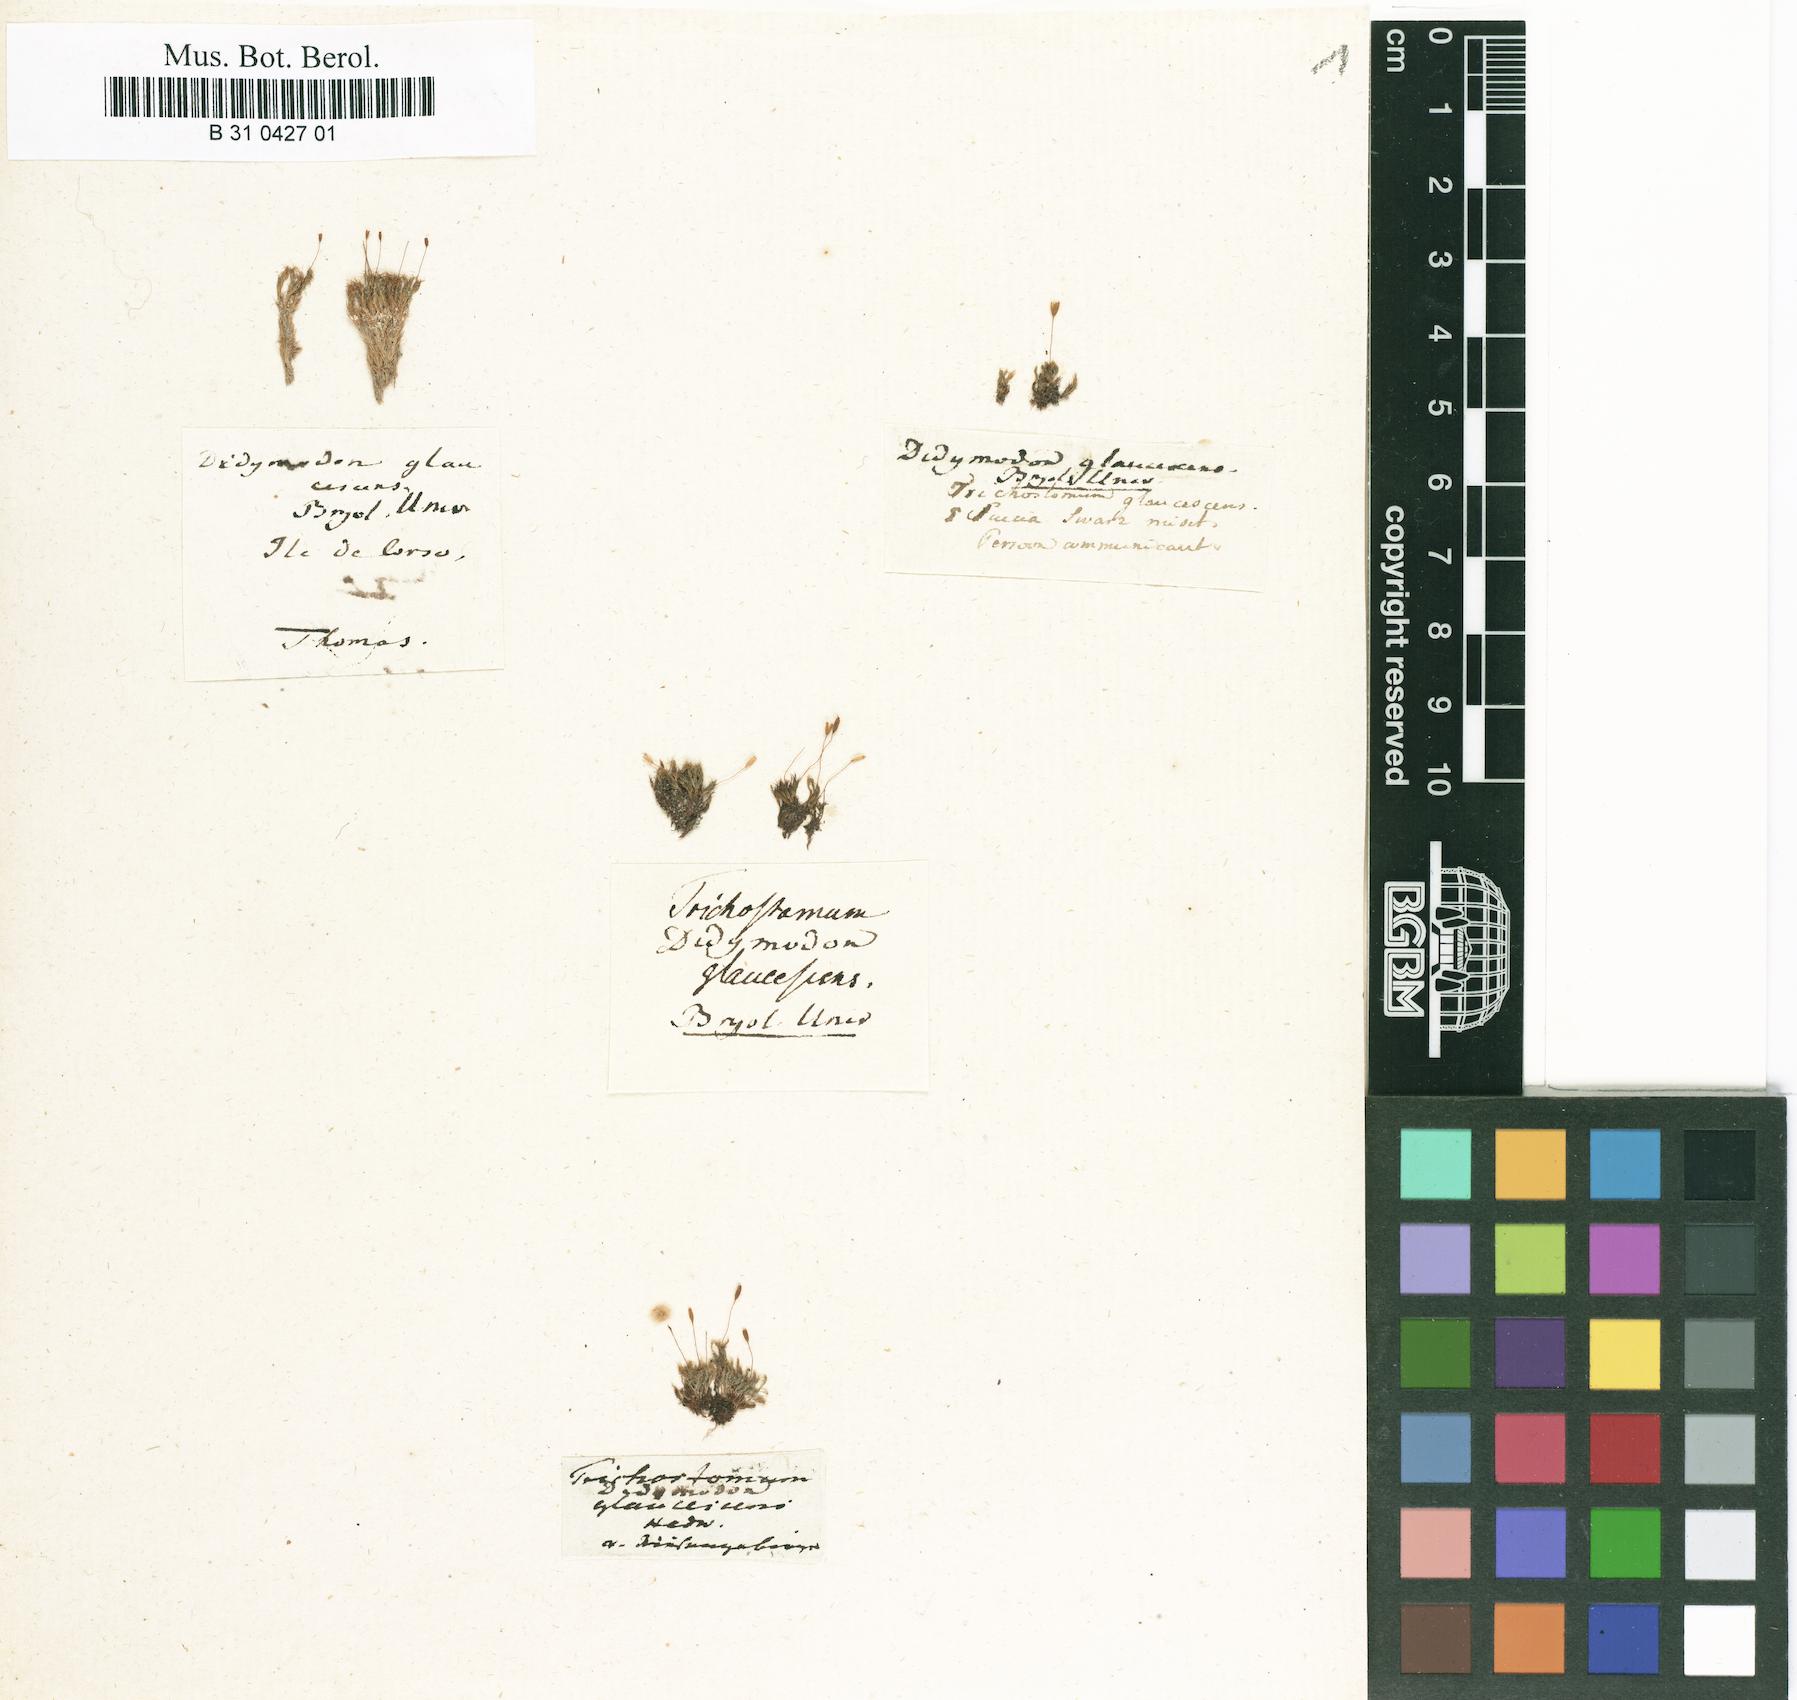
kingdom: Plantae
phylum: Bryophyta
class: Bryopsida
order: Grimmiales
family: Saelaniaceae
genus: Saelania
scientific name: Saelania glaucescens
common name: Blue dew-moss
